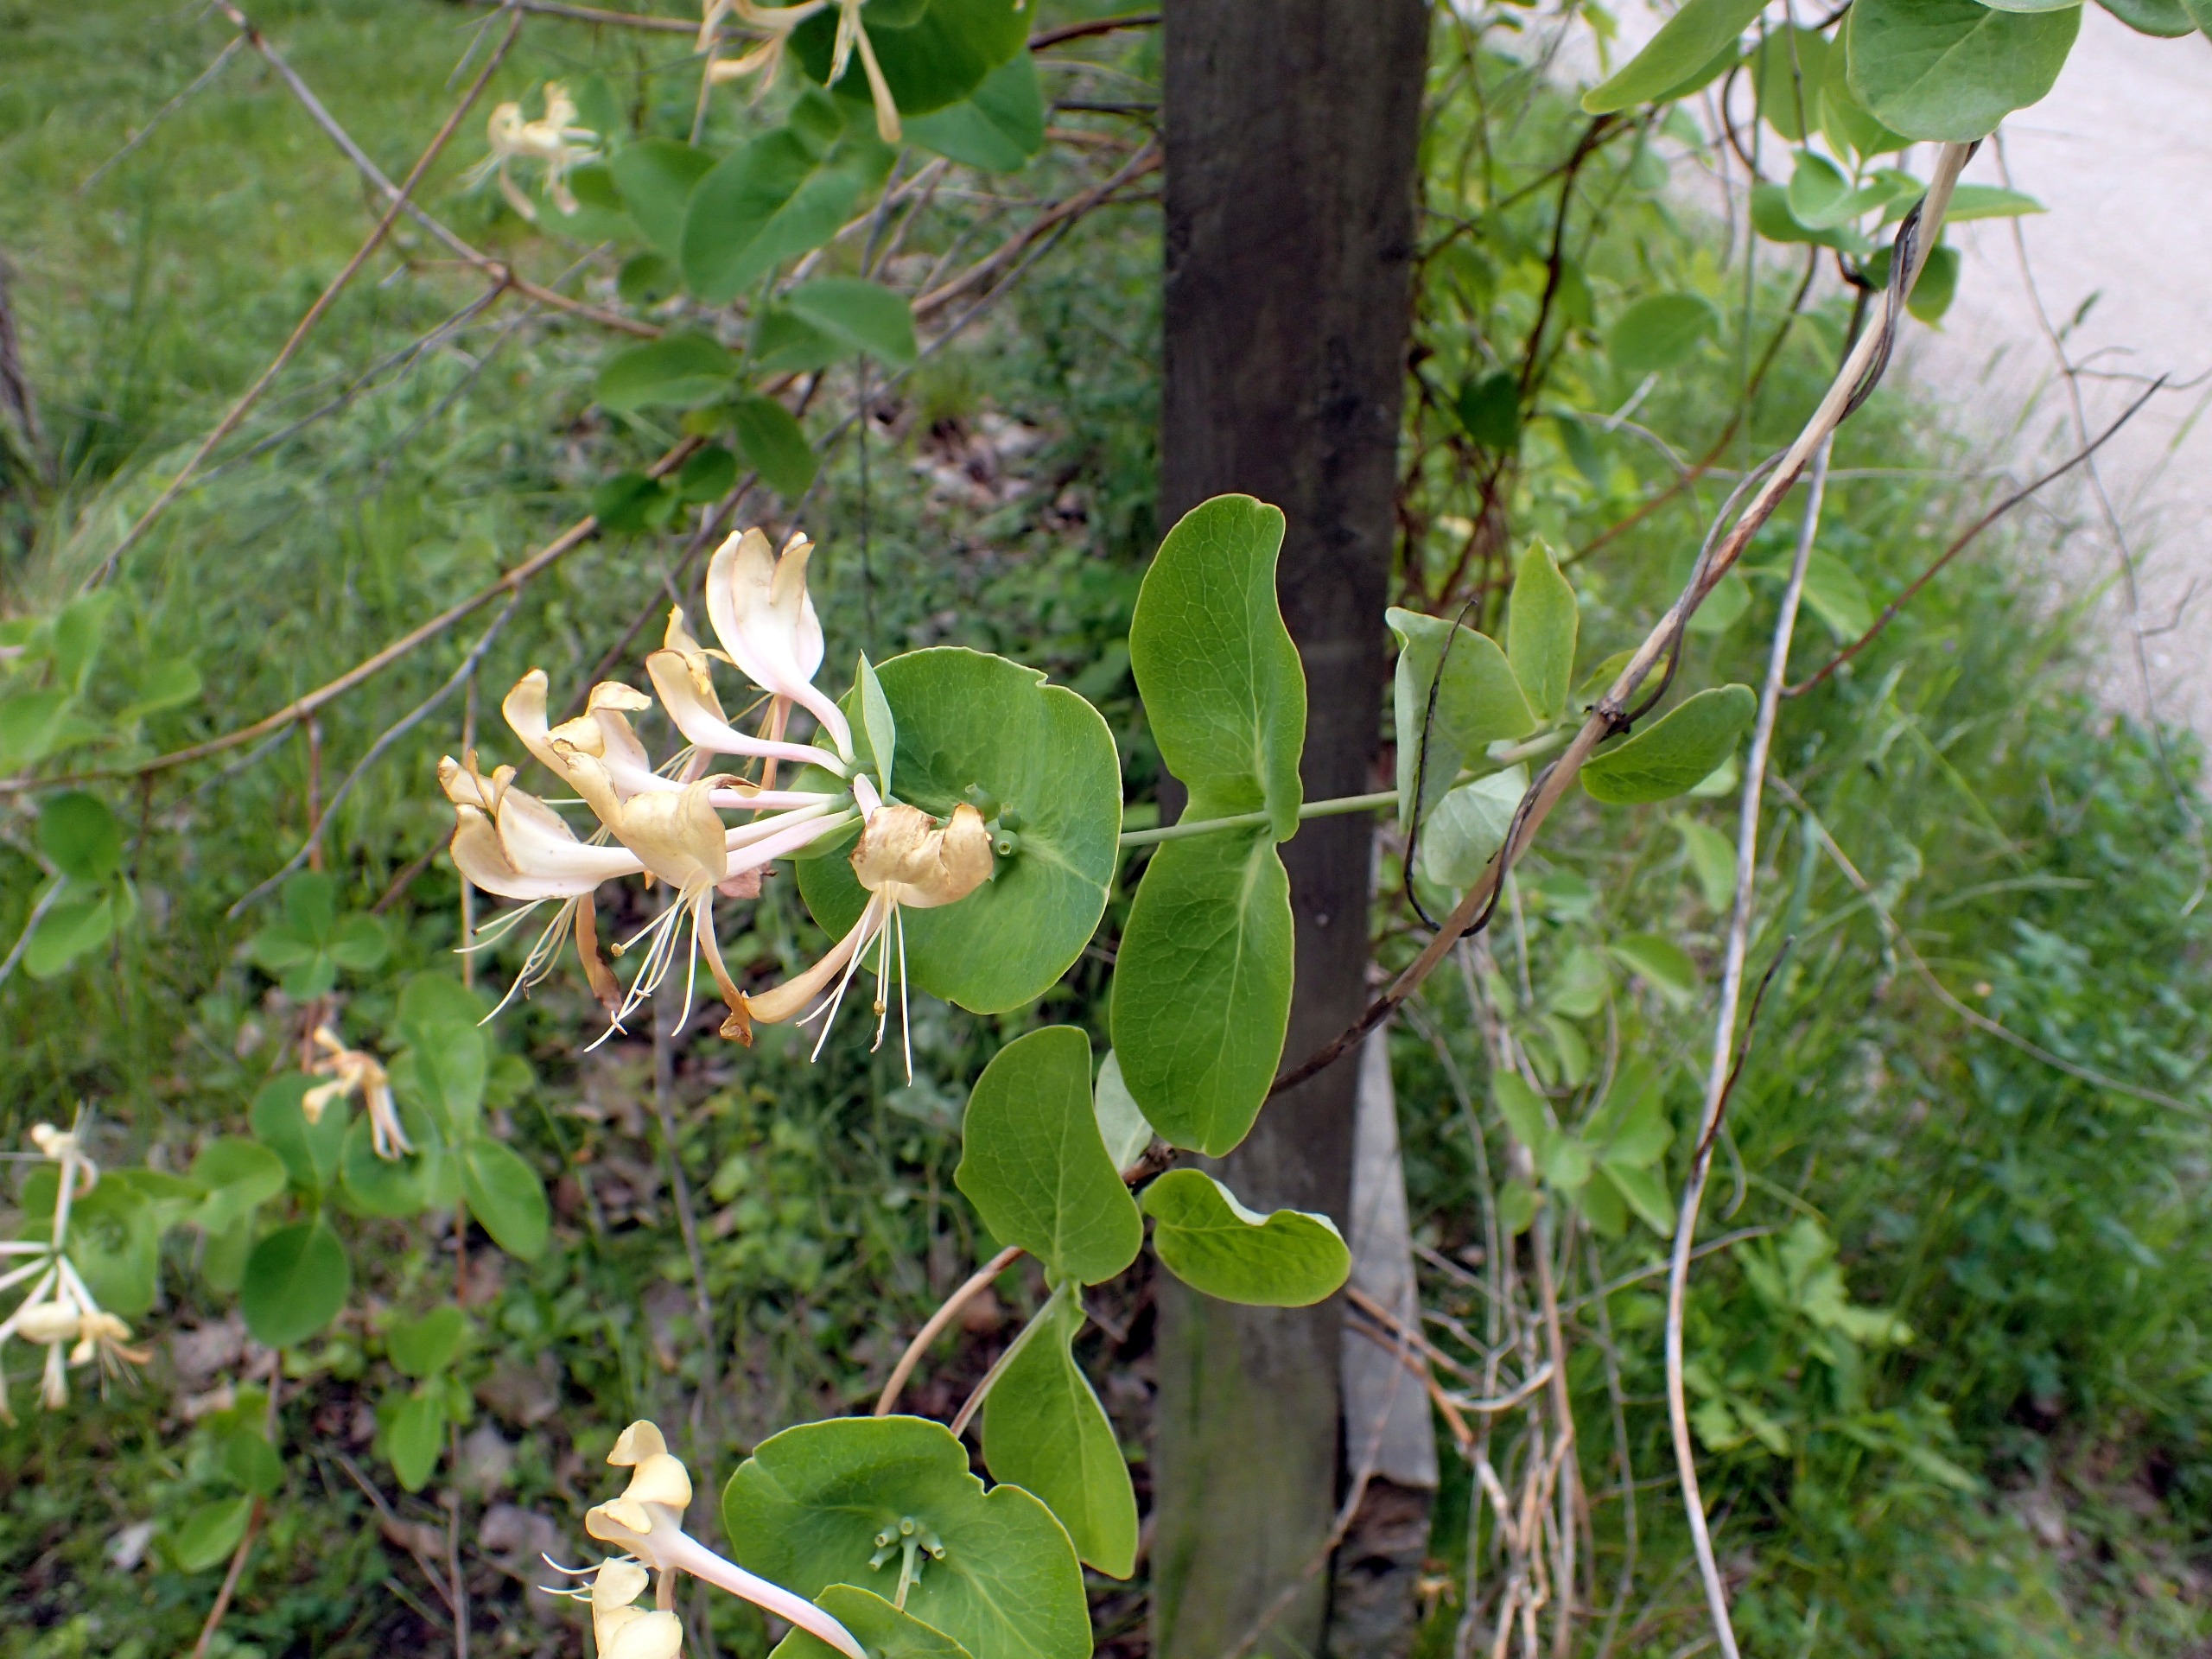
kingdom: Plantae
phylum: Tracheophyta
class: Magnoliopsida
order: Dipsacales
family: Caprifoliaceae
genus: Lonicera
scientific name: Lonicera caprifolium
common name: Ægte kaprifolie
